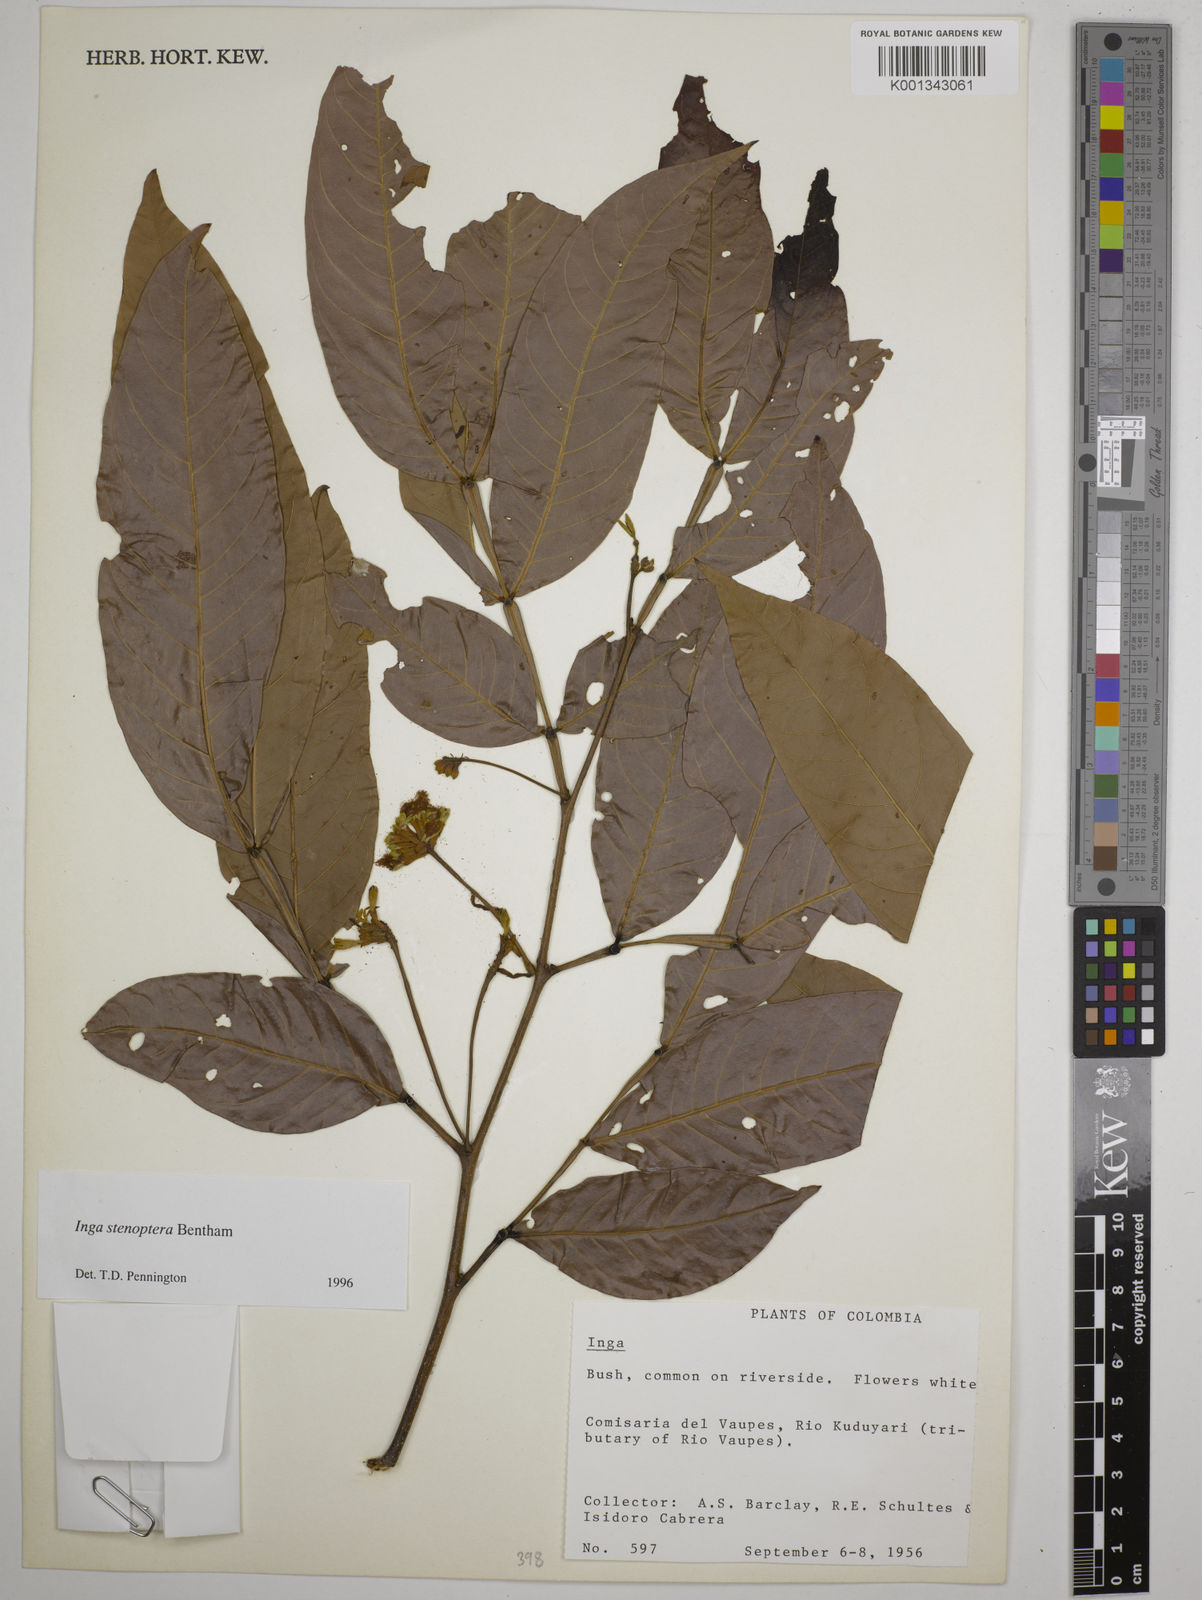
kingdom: Plantae
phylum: Tracheophyta
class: Magnoliopsida
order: Fabales
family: Fabaceae
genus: Inga
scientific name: Inga stenoptera
